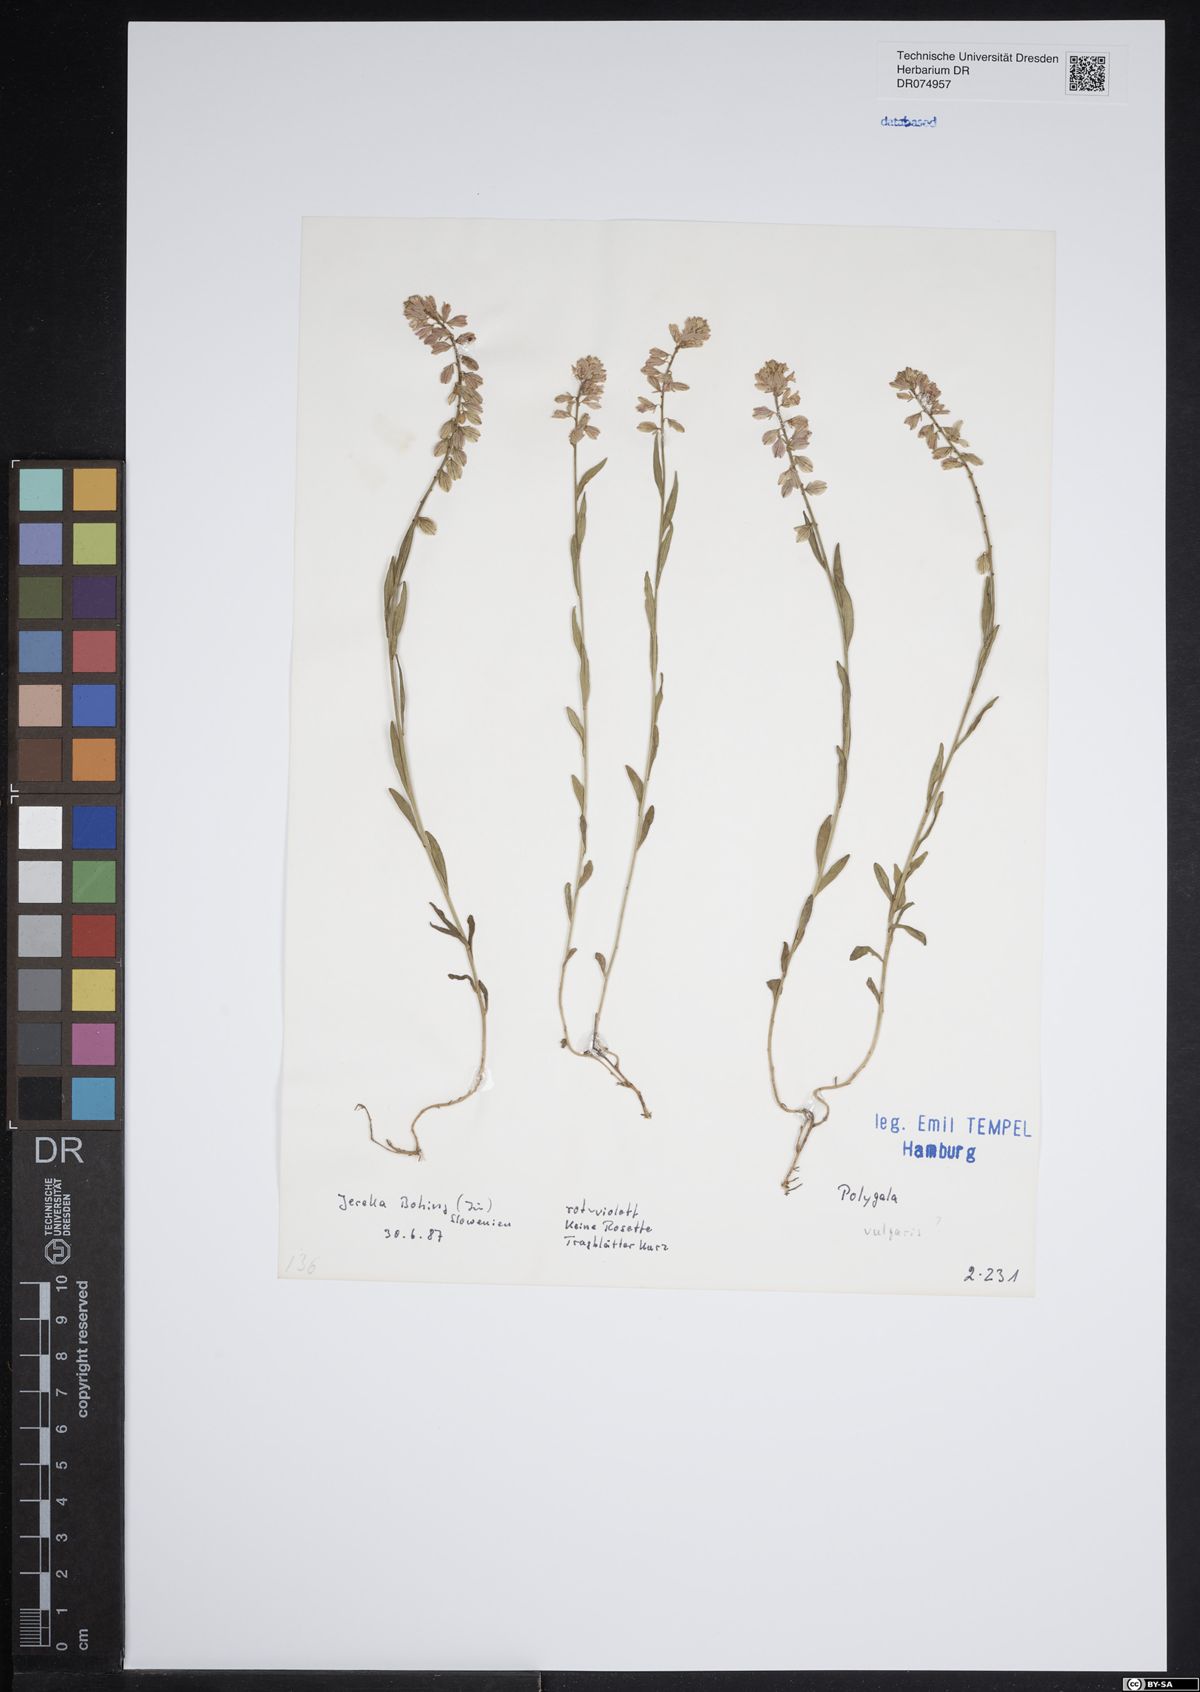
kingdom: Plantae
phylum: Tracheophyta
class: Magnoliopsida
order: Fabales
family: Polygalaceae
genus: Polygala
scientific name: Polygala vulgaris
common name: Common milkwort
